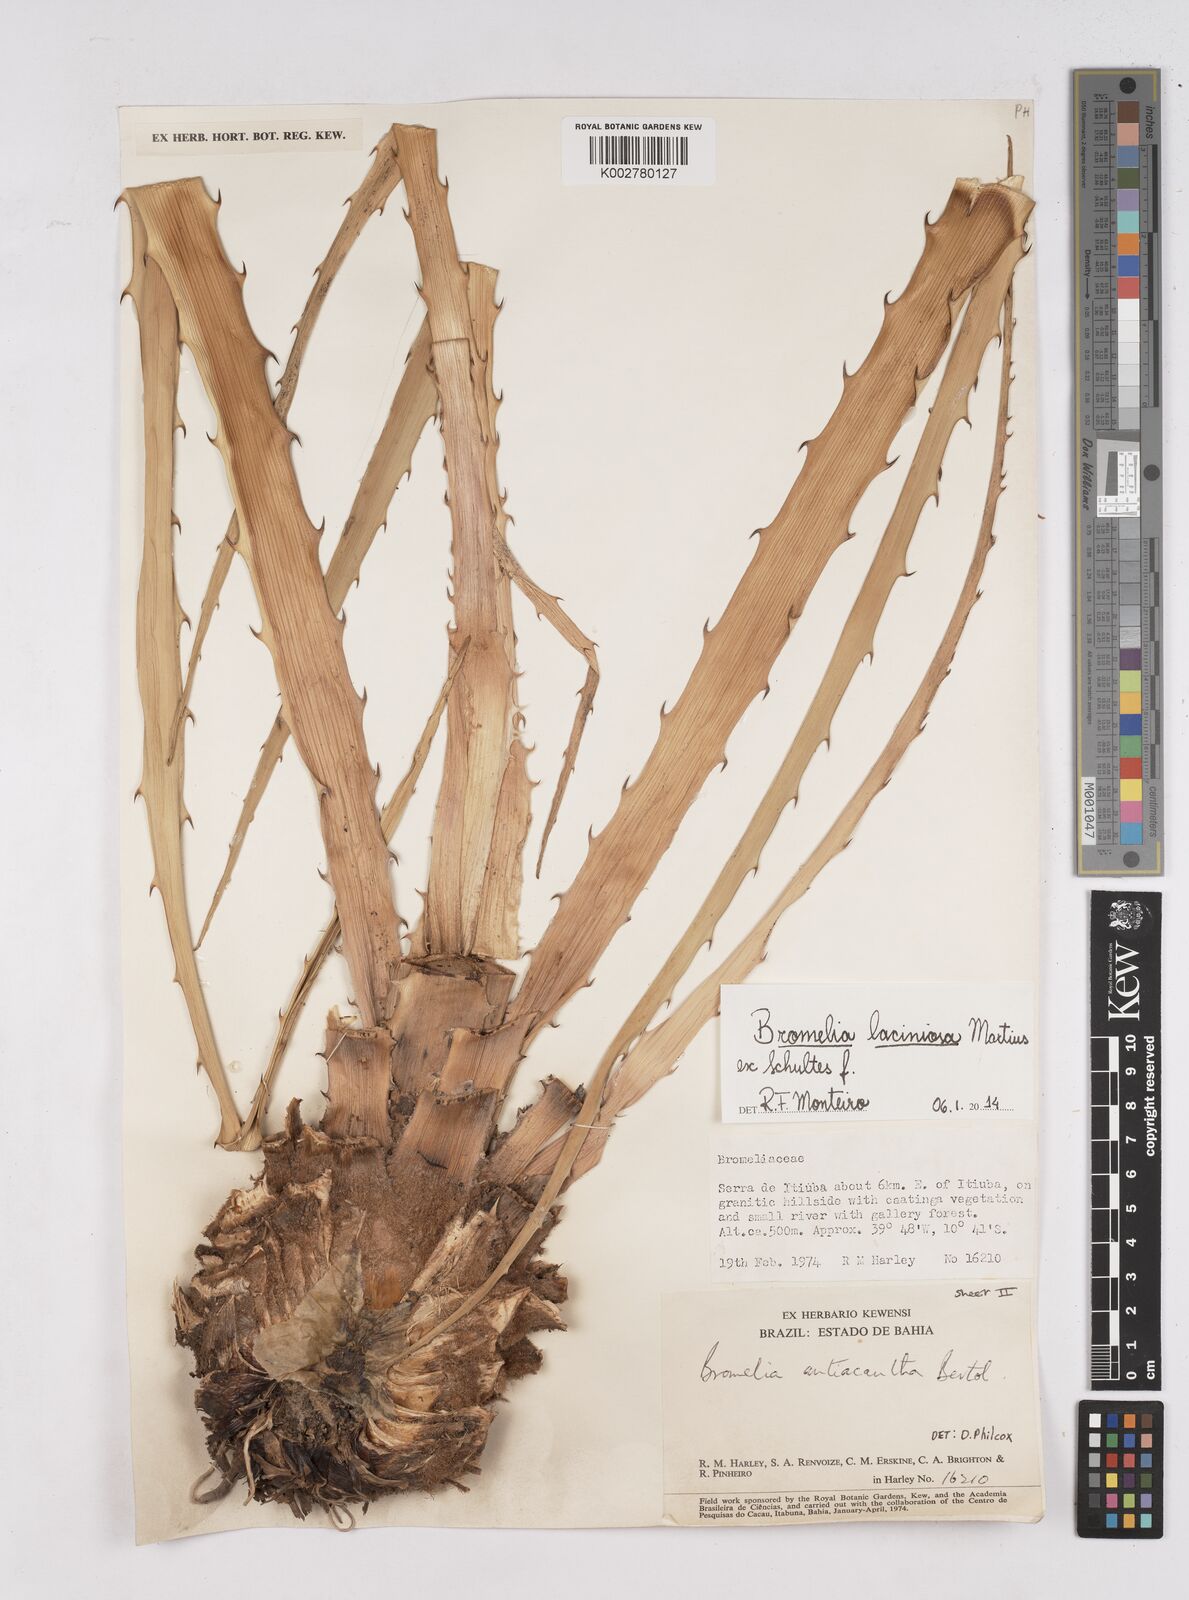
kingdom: Plantae
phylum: Tracheophyta
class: Liliopsida
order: Poales
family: Bromeliaceae
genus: Bromelia
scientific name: Bromelia laciniosa
